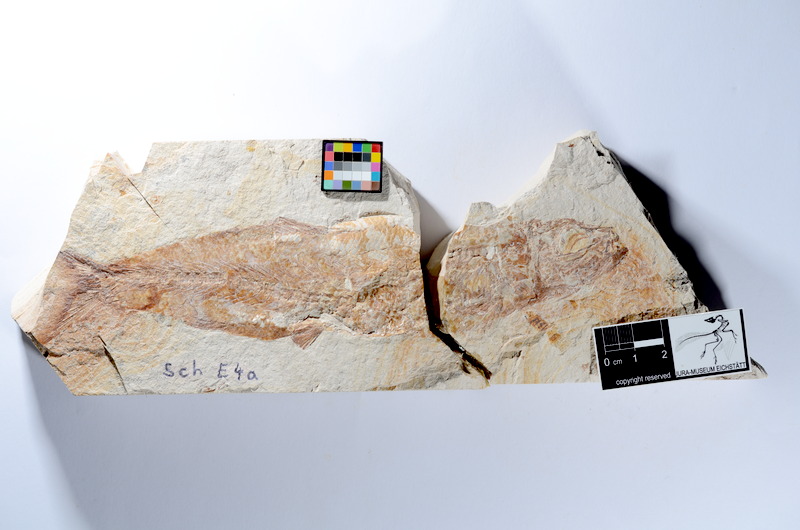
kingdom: Animalia
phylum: Chordata
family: Ascalaboidae
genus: Tharsis
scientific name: Tharsis dubius
